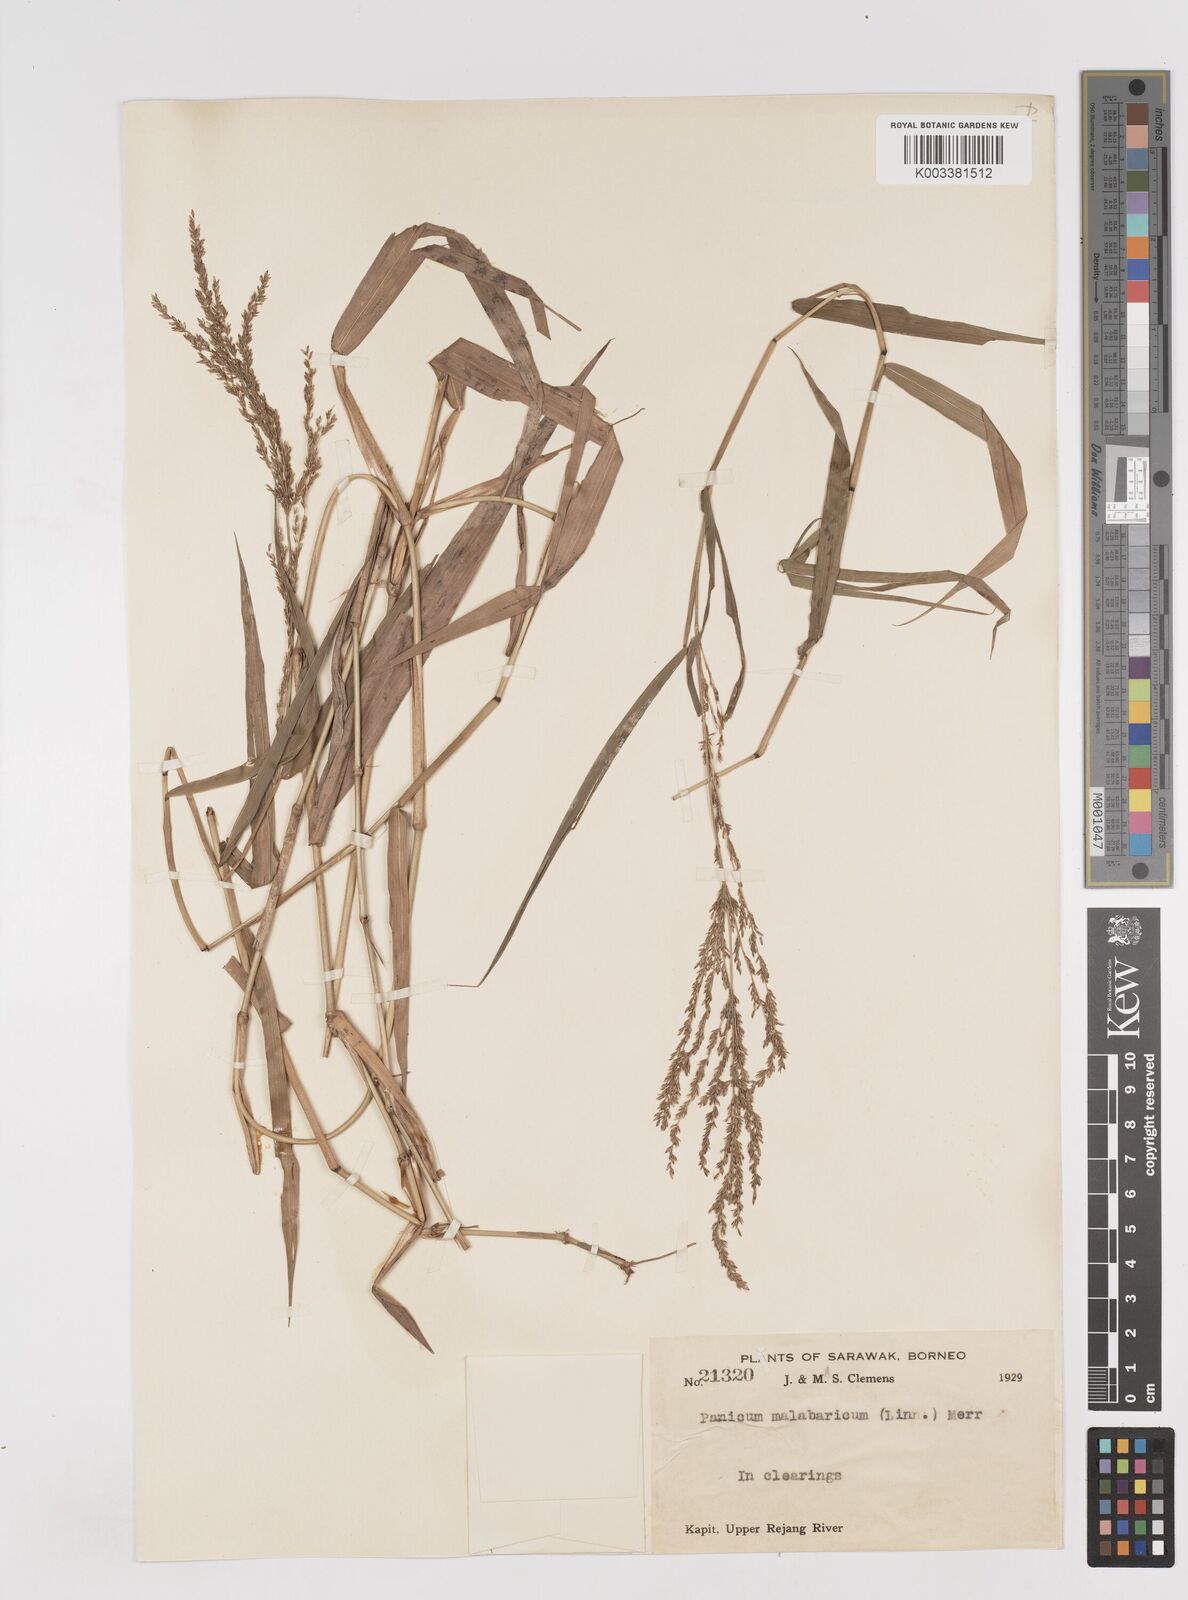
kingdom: Plantae
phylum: Tracheophyta
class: Liliopsida
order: Poales
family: Poaceae
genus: Ottochloa
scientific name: Ottochloa nodosa
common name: Slender-panic grass
